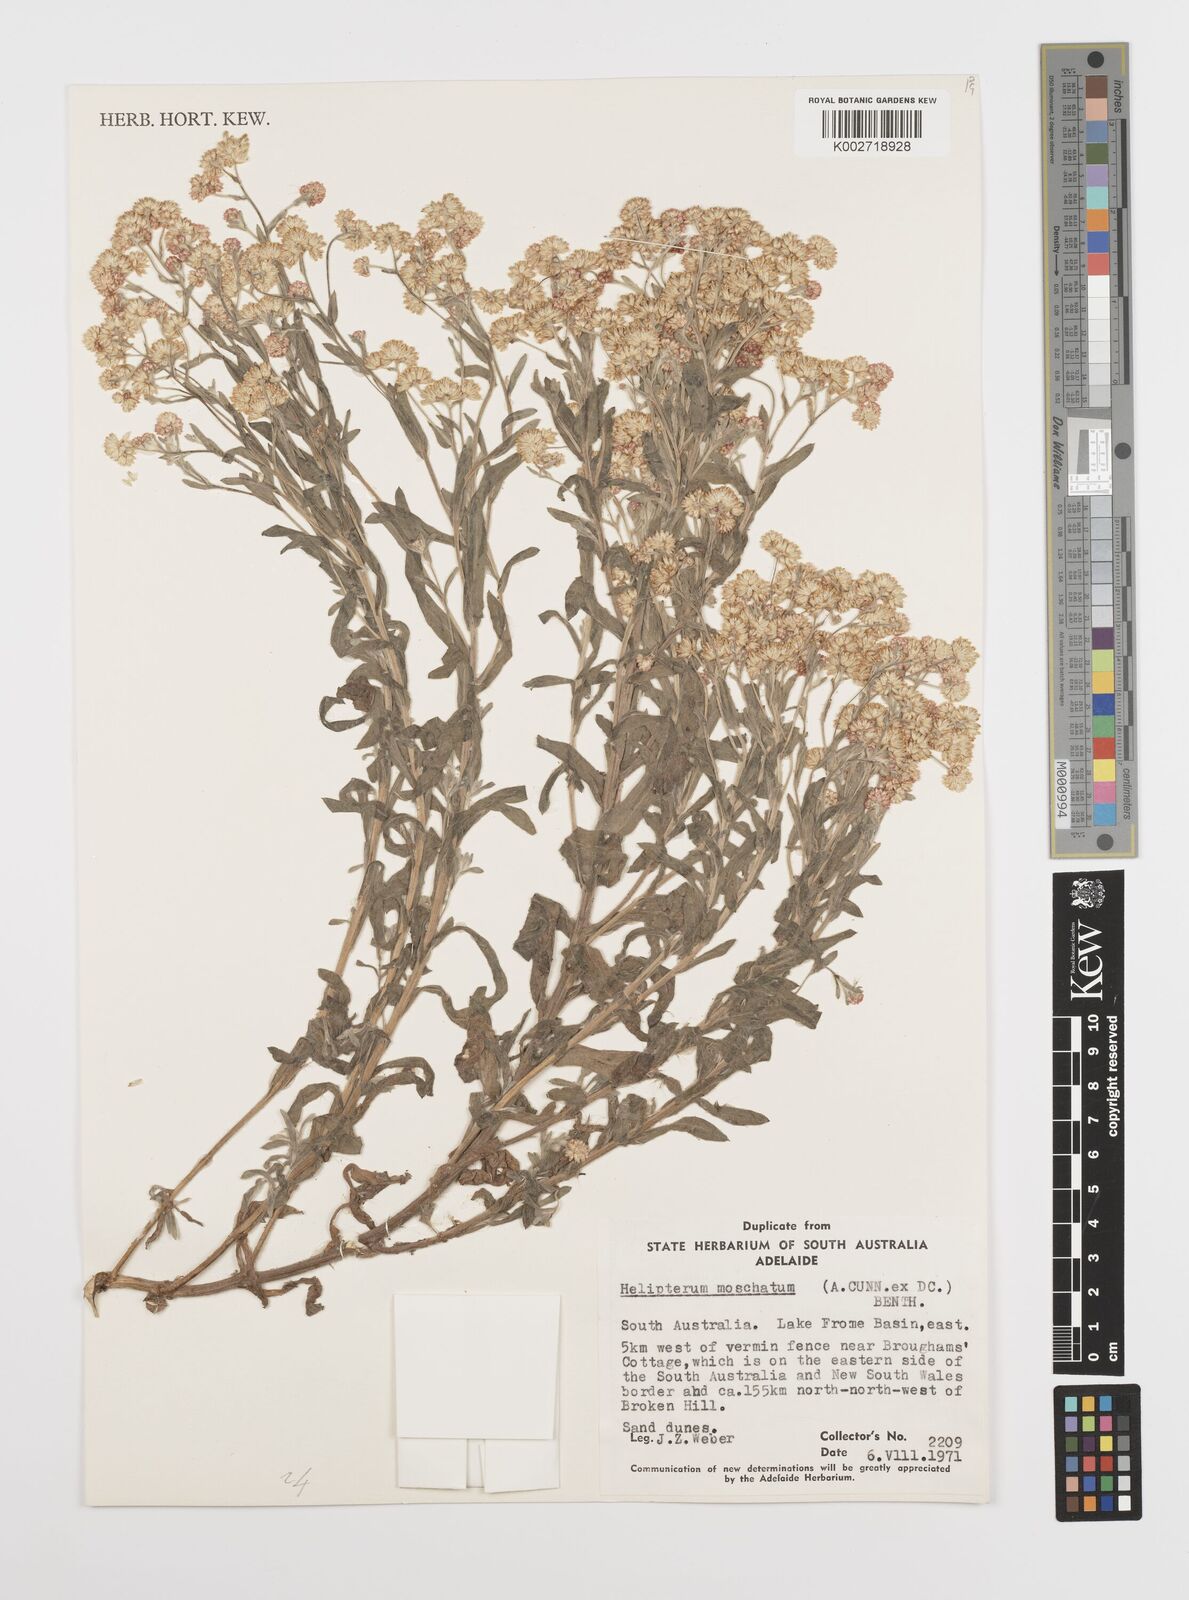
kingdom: Plantae
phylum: Tracheophyta
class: Magnoliopsida
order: Asterales
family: Asteraceae
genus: Rhodanthe
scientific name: Rhodanthe moschata
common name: Musk sunray
